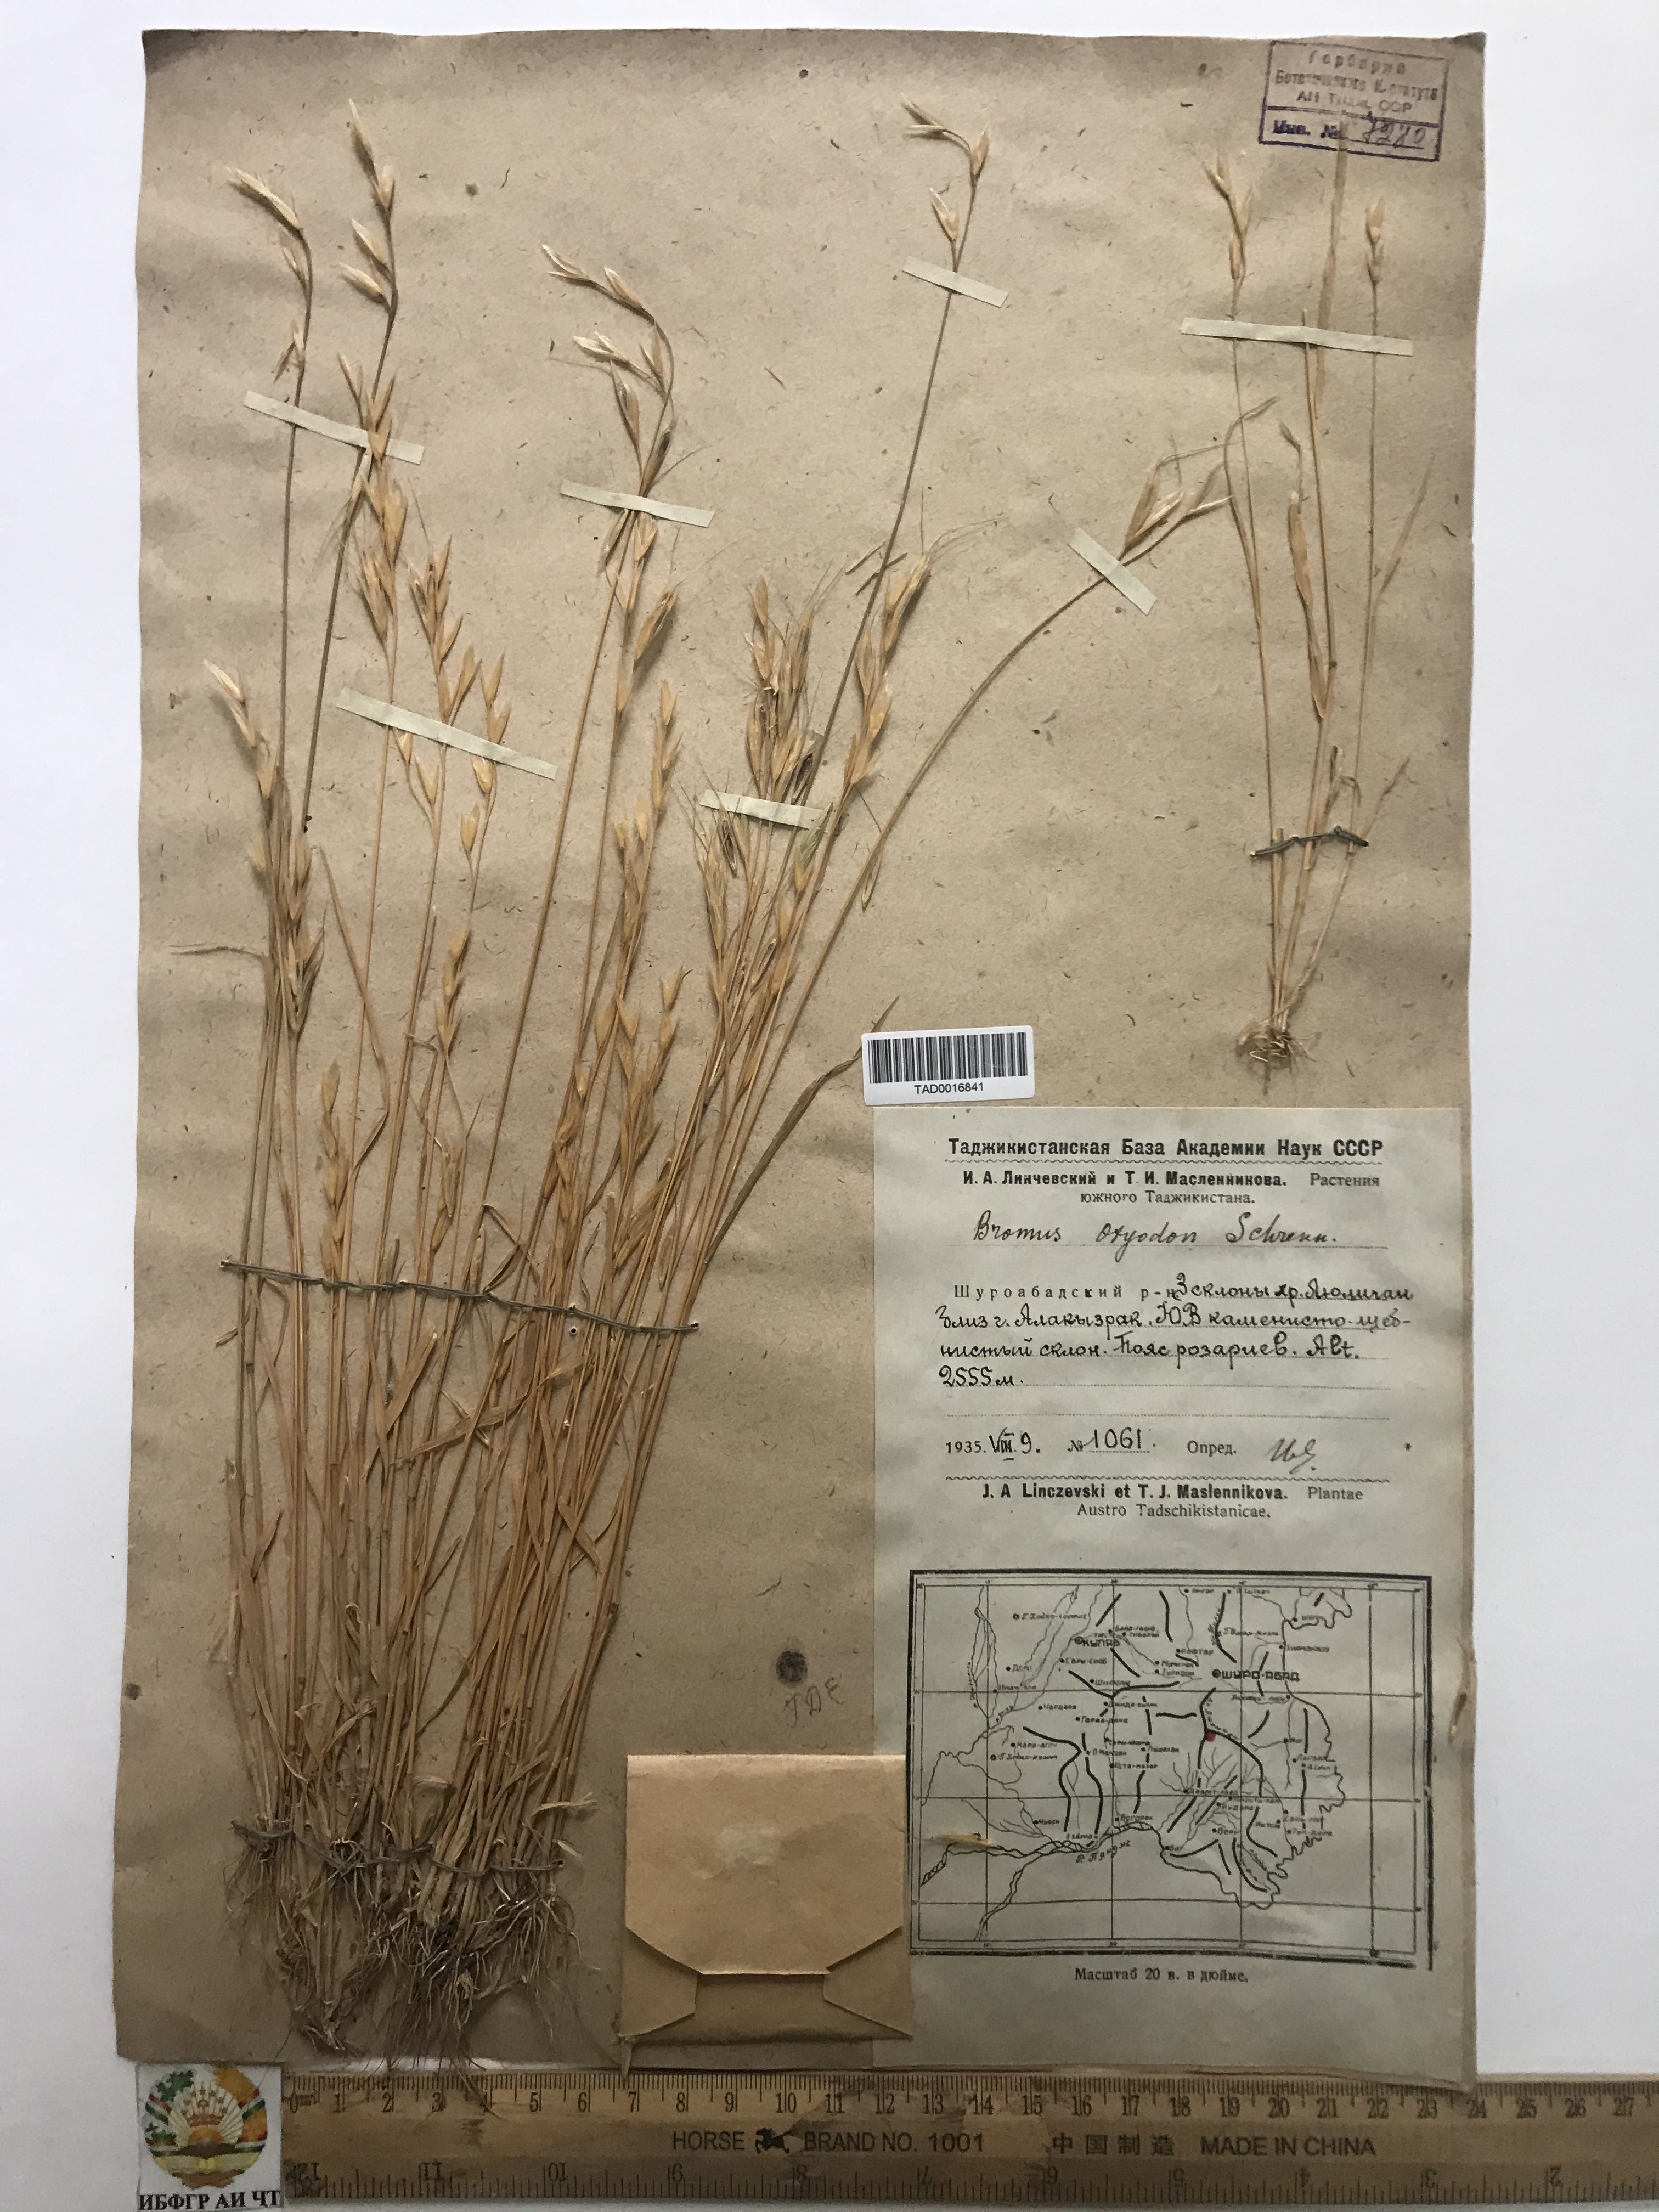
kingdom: Plantae
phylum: Tracheophyta
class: Liliopsida
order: Poales
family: Poaceae
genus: Bromus
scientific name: Bromus oxyodon
